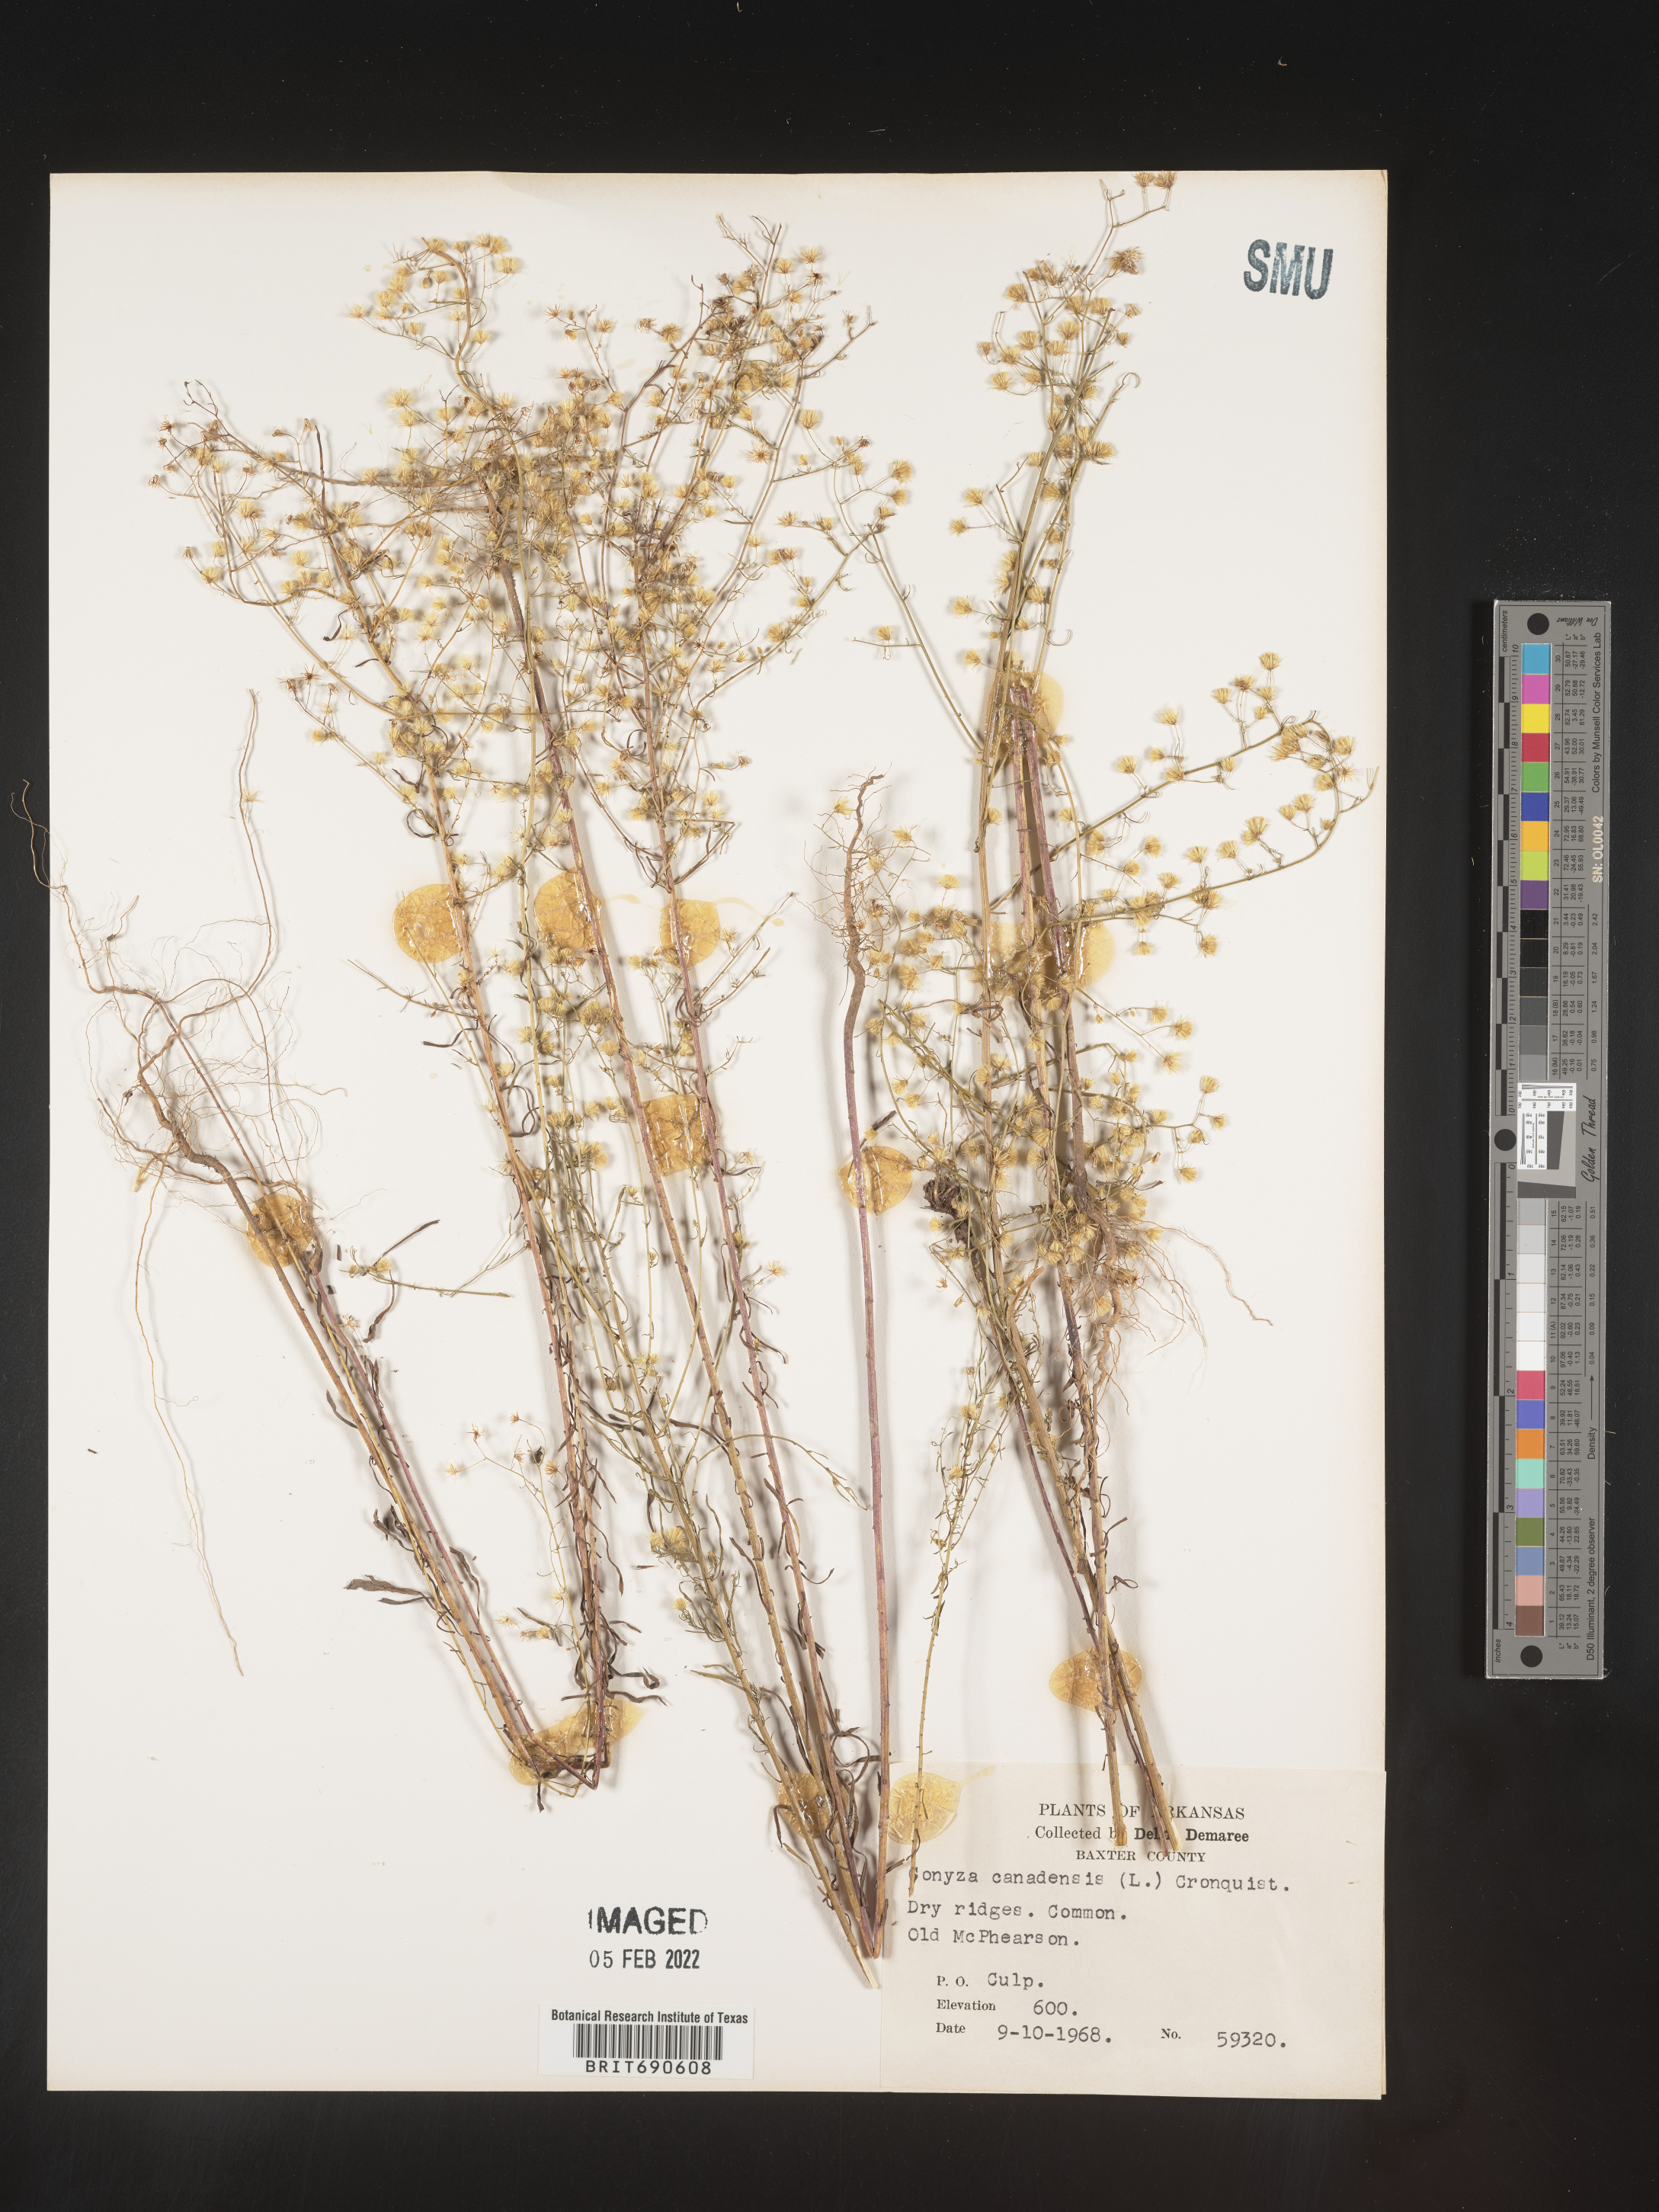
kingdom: Plantae
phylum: Tracheophyta
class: Magnoliopsida
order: Asterales
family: Asteraceae
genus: Erigeron
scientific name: Erigeron canadensis
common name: Canadian fleabane
